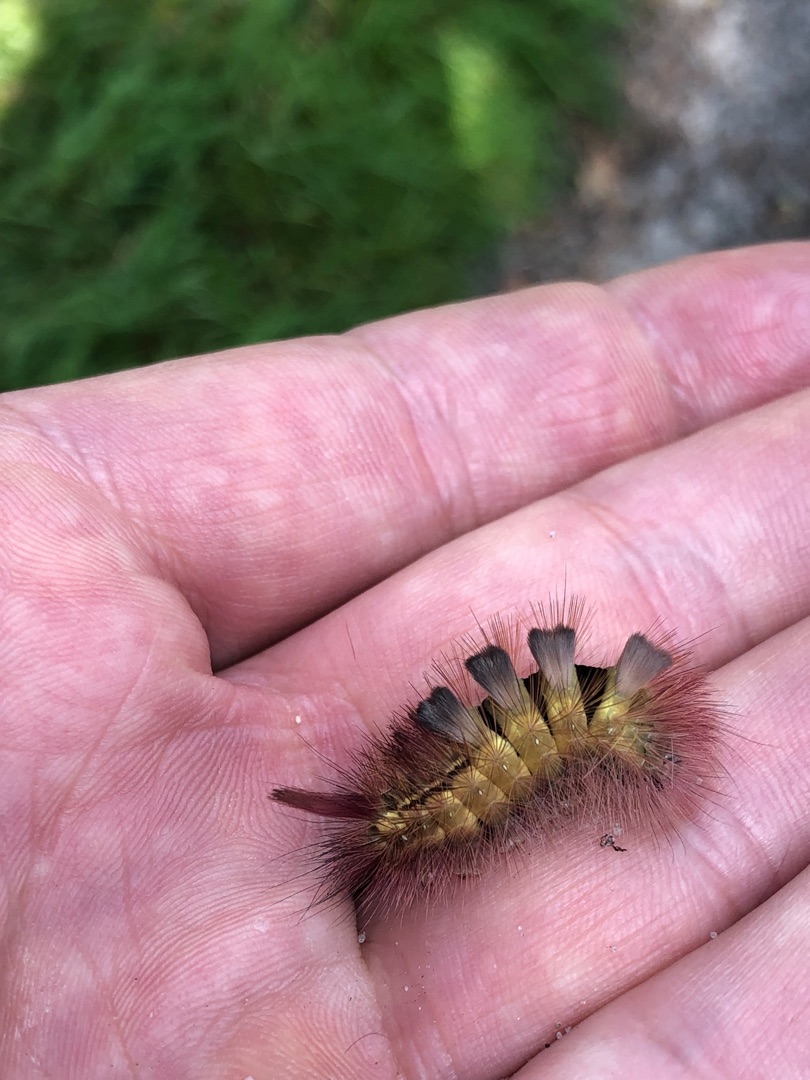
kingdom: Animalia
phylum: Arthropoda
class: Insecta
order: Lepidoptera
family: Erebidae
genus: Calliteara
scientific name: Calliteara pudibunda
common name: Bøgenonne
